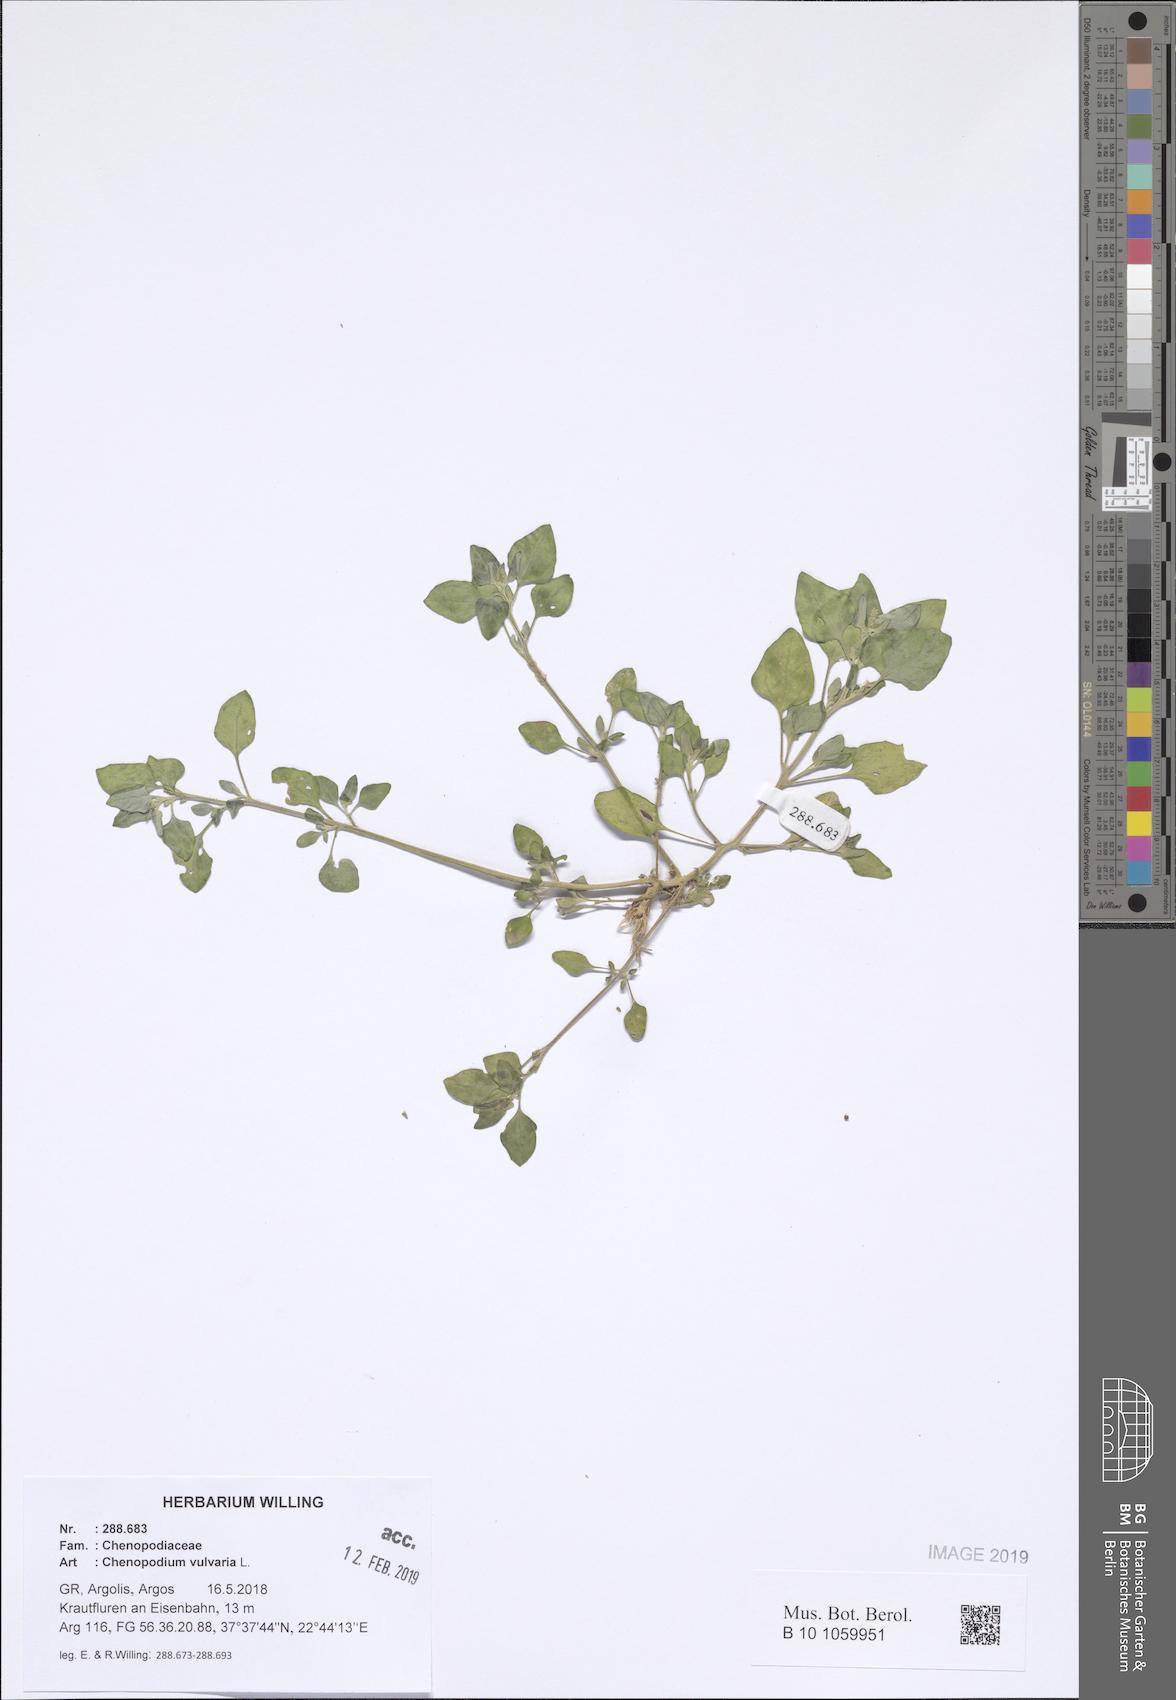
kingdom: Plantae
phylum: Tracheophyta
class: Magnoliopsida
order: Caryophyllales
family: Amaranthaceae
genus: Chenopodium
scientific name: Chenopodium vulvaria
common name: Stinking goosefoot
